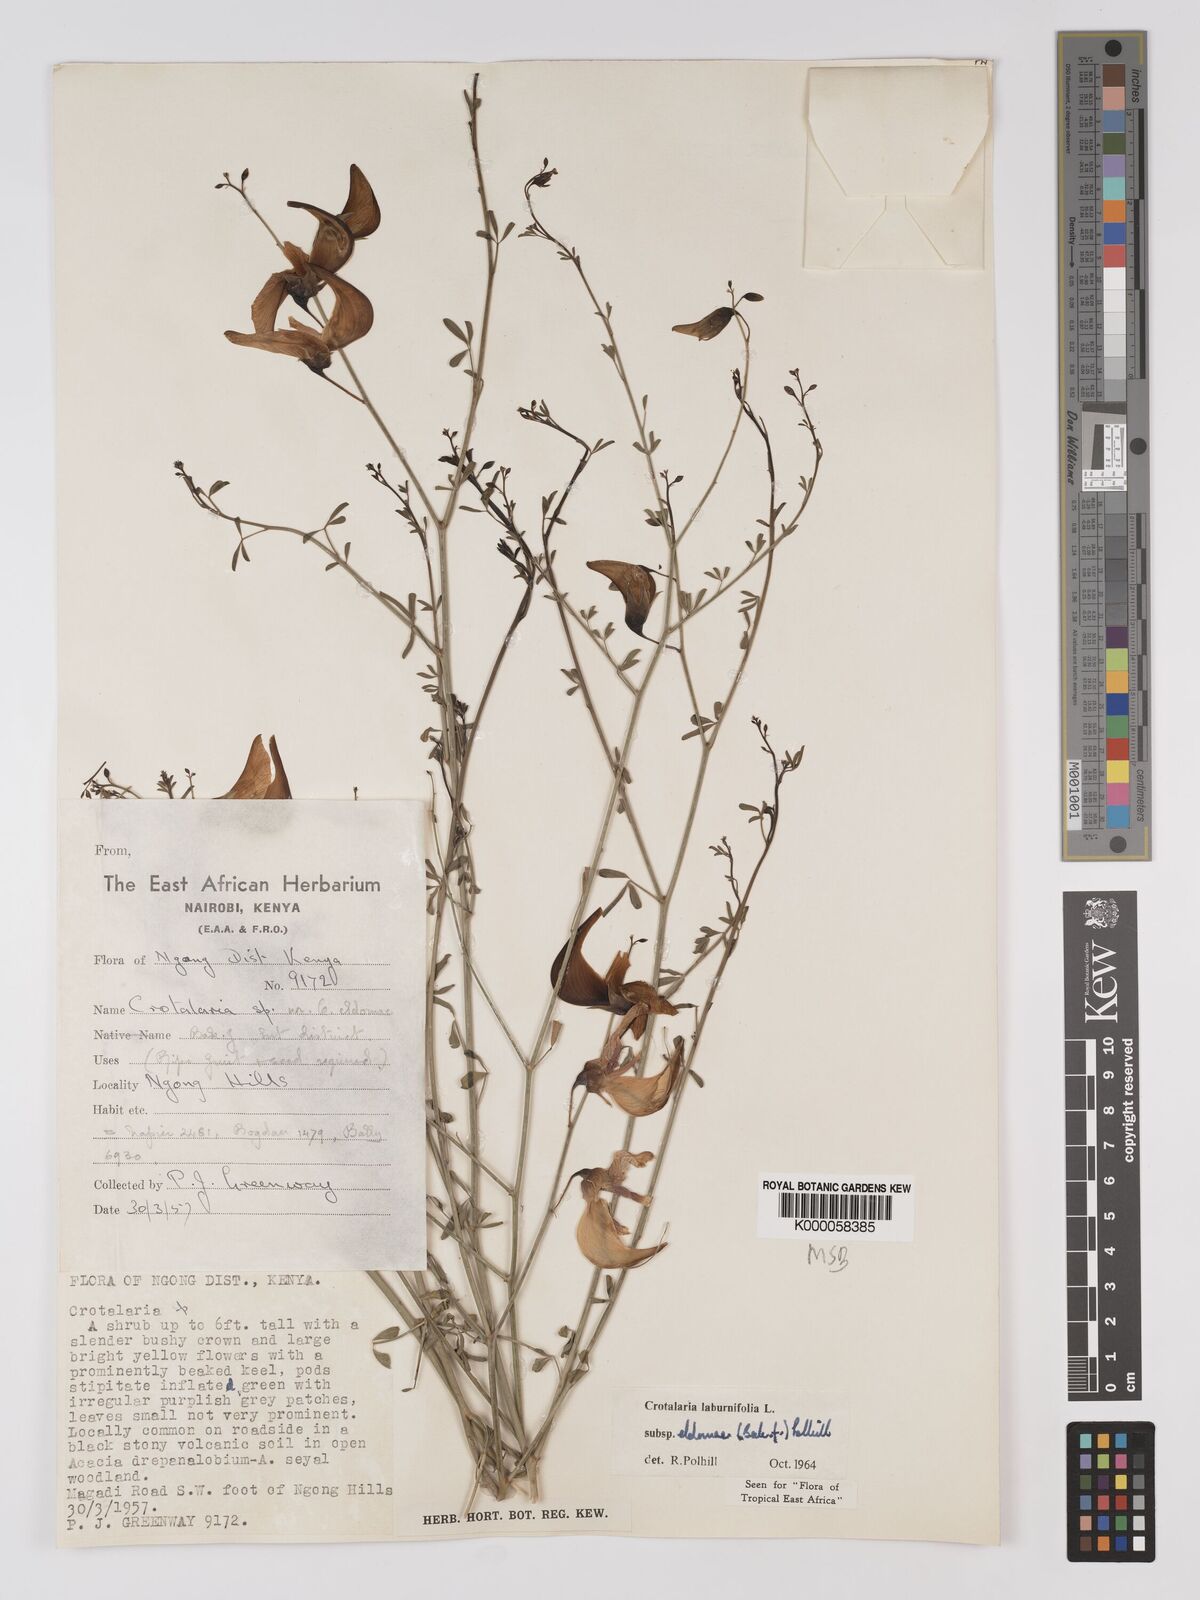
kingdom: Plantae
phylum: Tracheophyta
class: Magnoliopsida
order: Fabales
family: Fabaceae
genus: Crotalaria
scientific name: Crotalaria laburnifolia
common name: Birdflower
